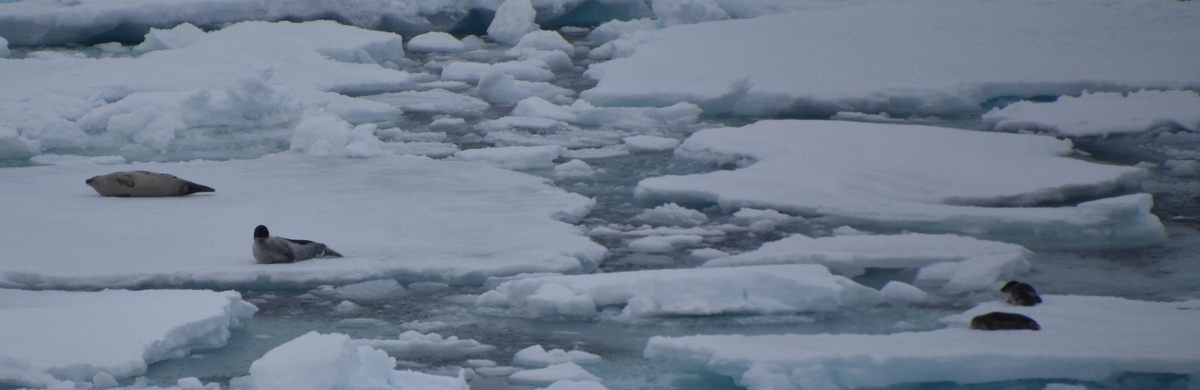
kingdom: Animalia
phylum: Chordata
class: Mammalia
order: Carnivora
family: Phocidae
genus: Pagophilus
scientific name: Pagophilus groenlandicus
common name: Harp Seal
